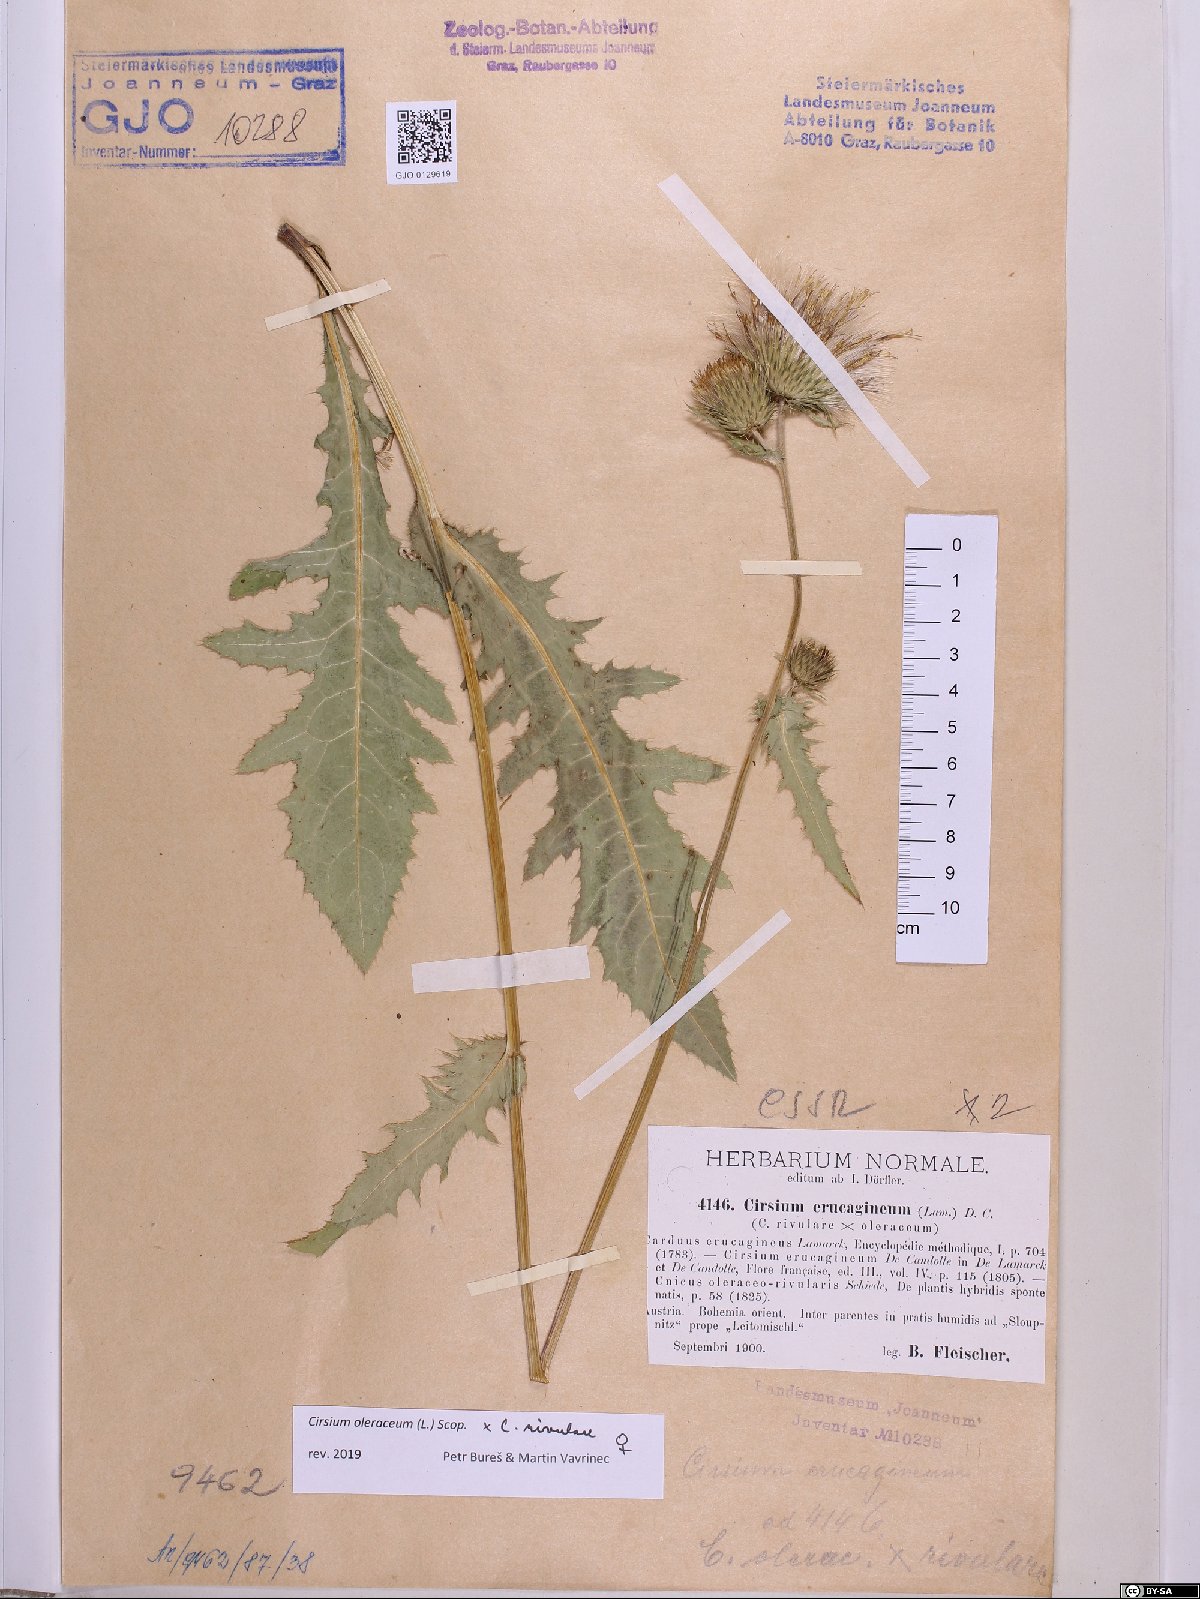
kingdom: Plantae
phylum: Tracheophyta
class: Magnoliopsida
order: Asterales
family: Asteraceae
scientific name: Asteraceae
